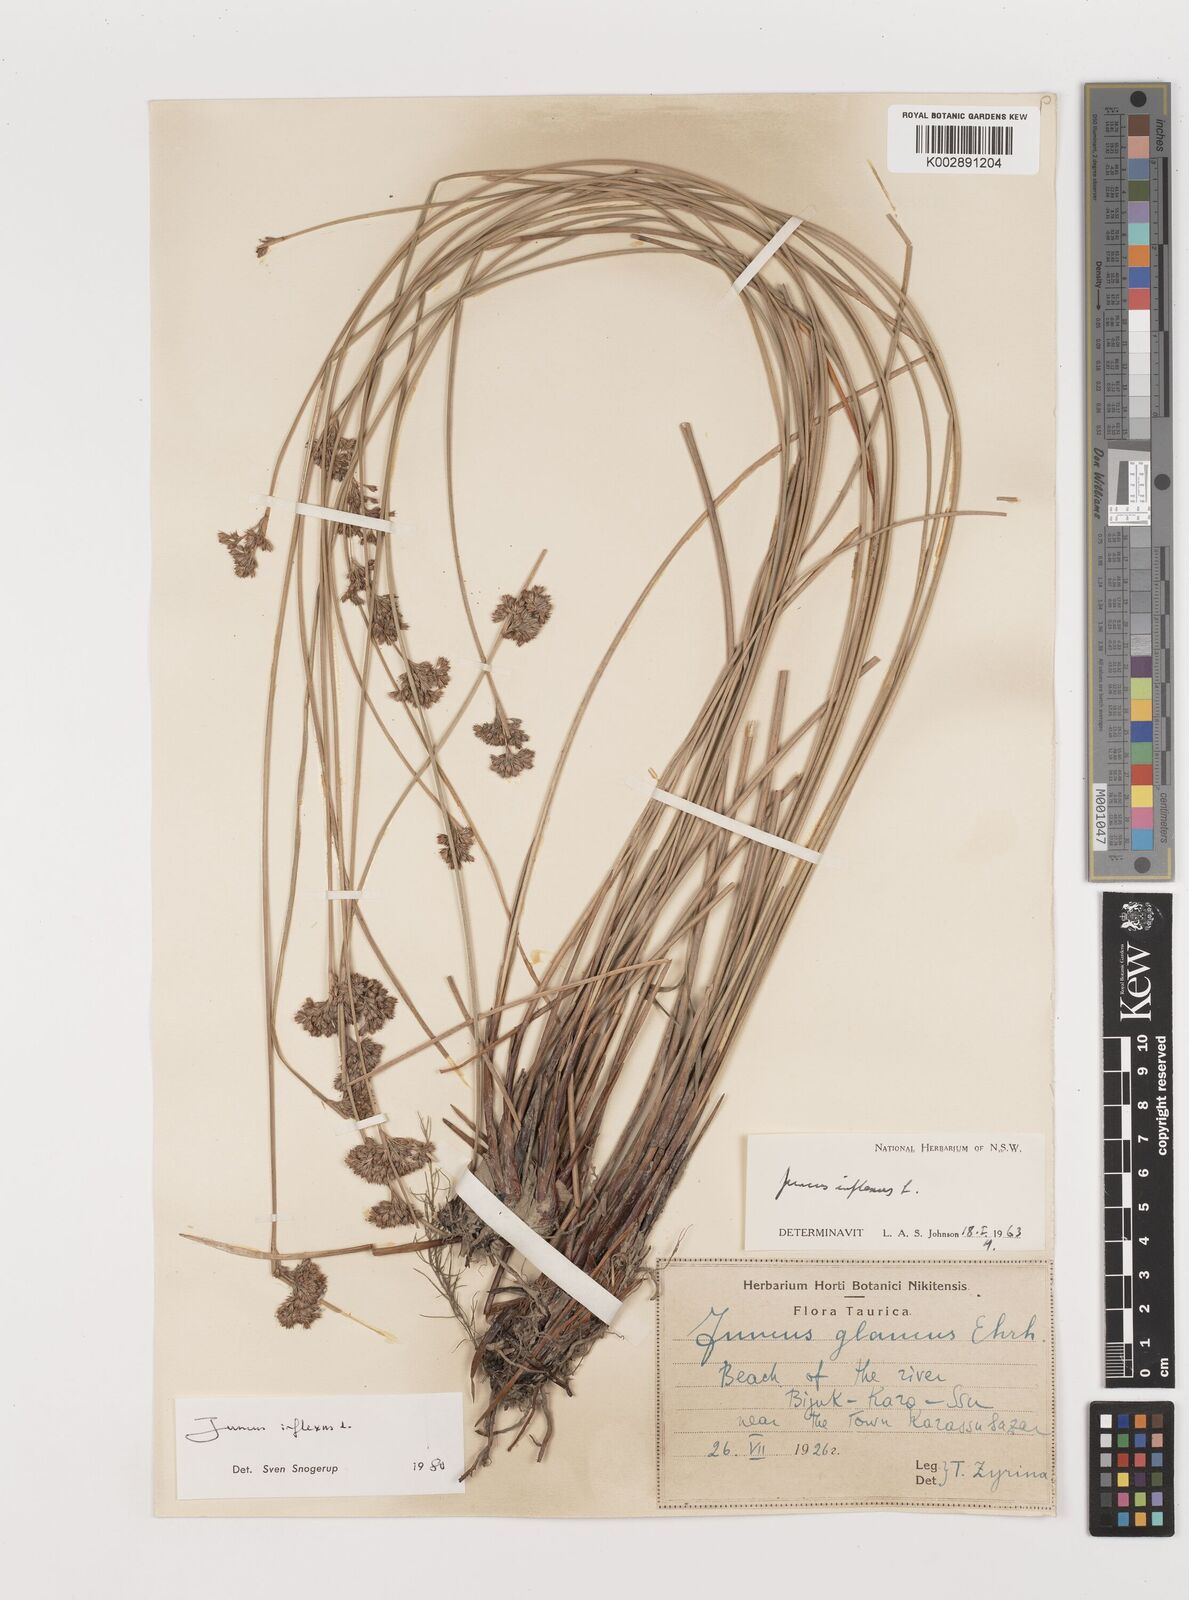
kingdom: Plantae
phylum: Tracheophyta
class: Liliopsida
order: Poales
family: Juncaceae
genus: Juncus
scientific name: Juncus inflexus
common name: Hard rush
